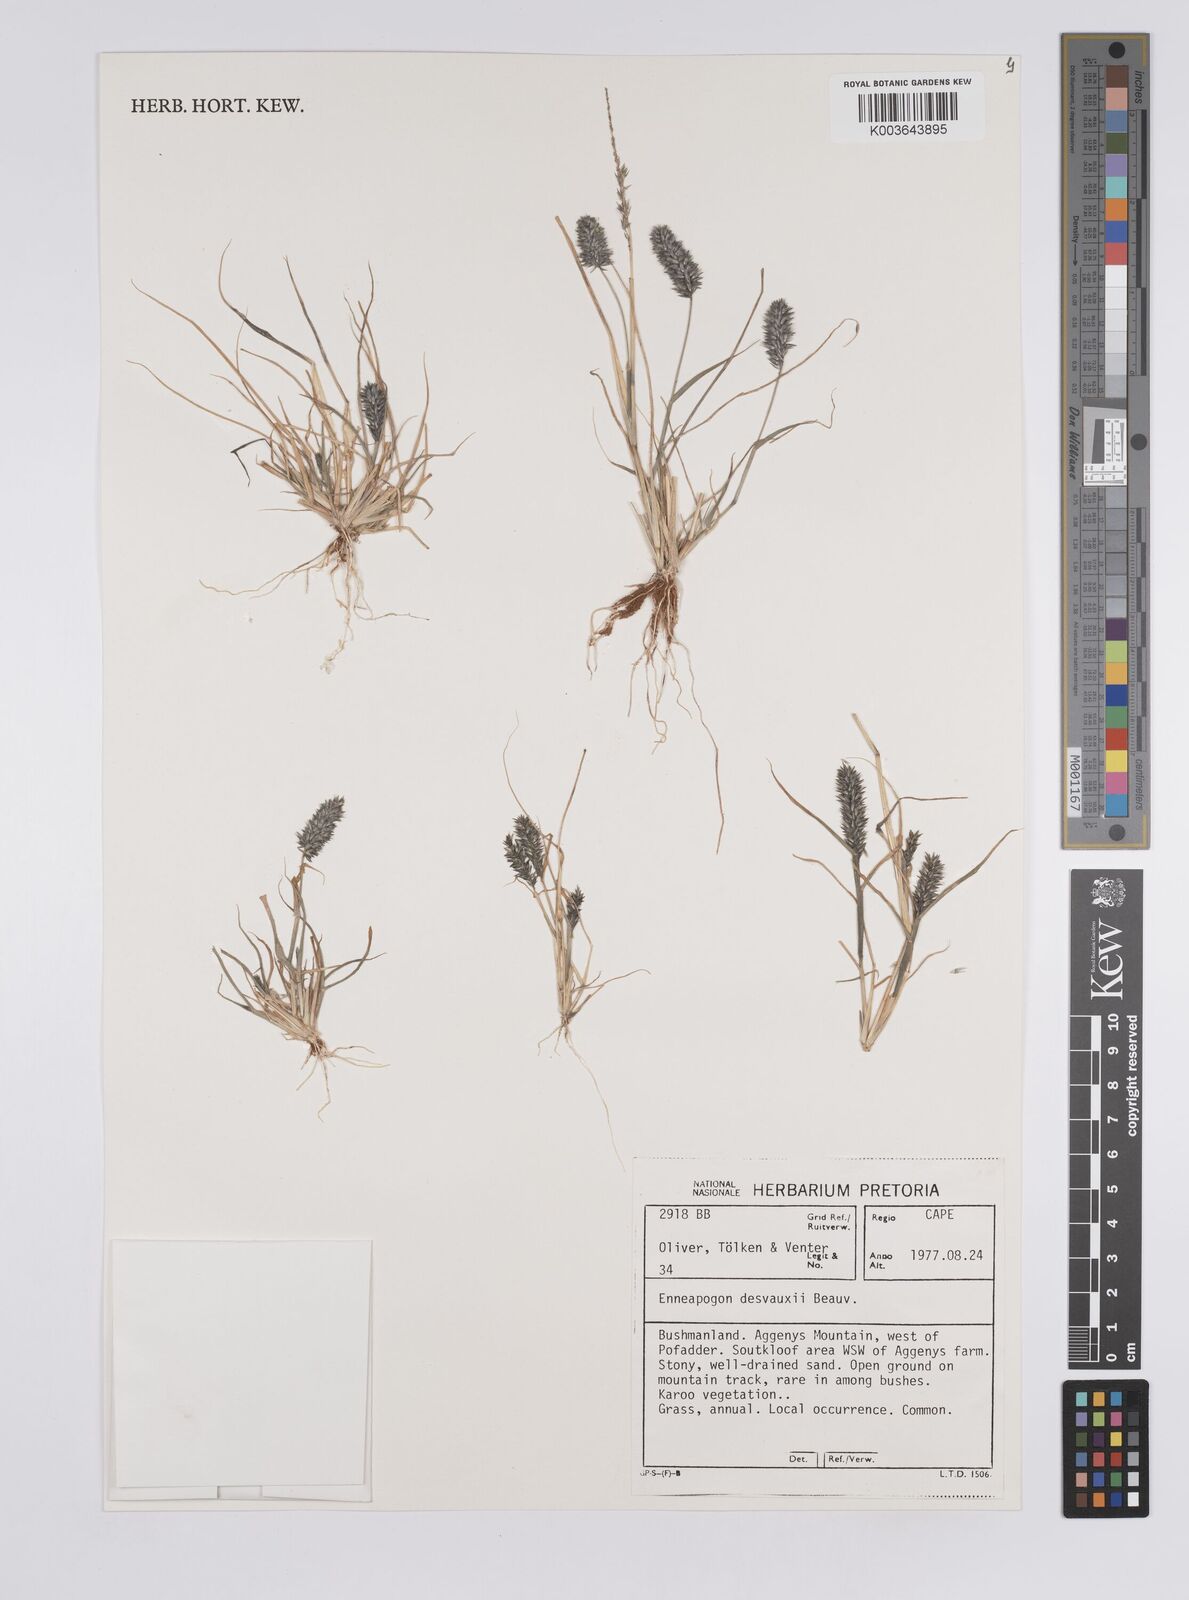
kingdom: Plantae
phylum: Tracheophyta
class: Liliopsida
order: Poales
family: Poaceae
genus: Enneapogon
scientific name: Enneapogon desvauxii
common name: Feather pappus grass
